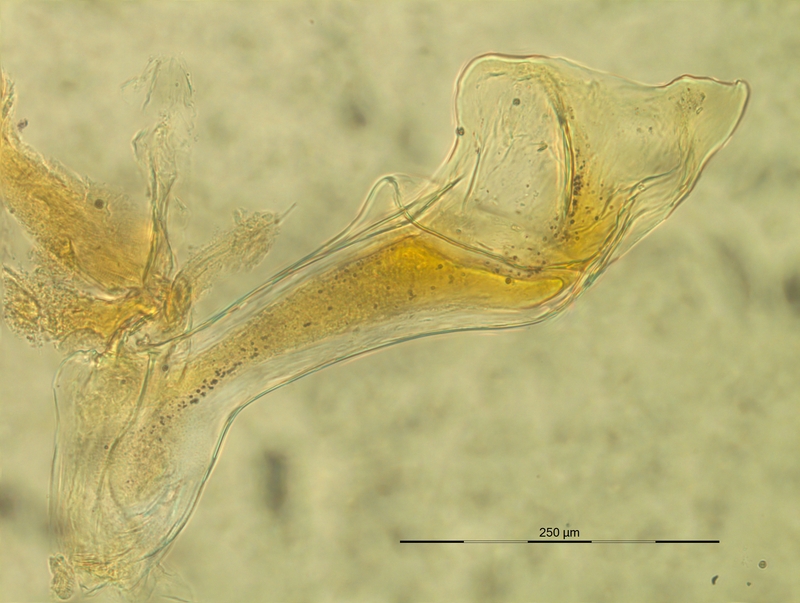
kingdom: Animalia
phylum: Arthropoda
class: Diplopoda
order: Chordeumatida
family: Craspedosomatidae
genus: Craspedosoma
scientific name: Craspedosoma slavum
